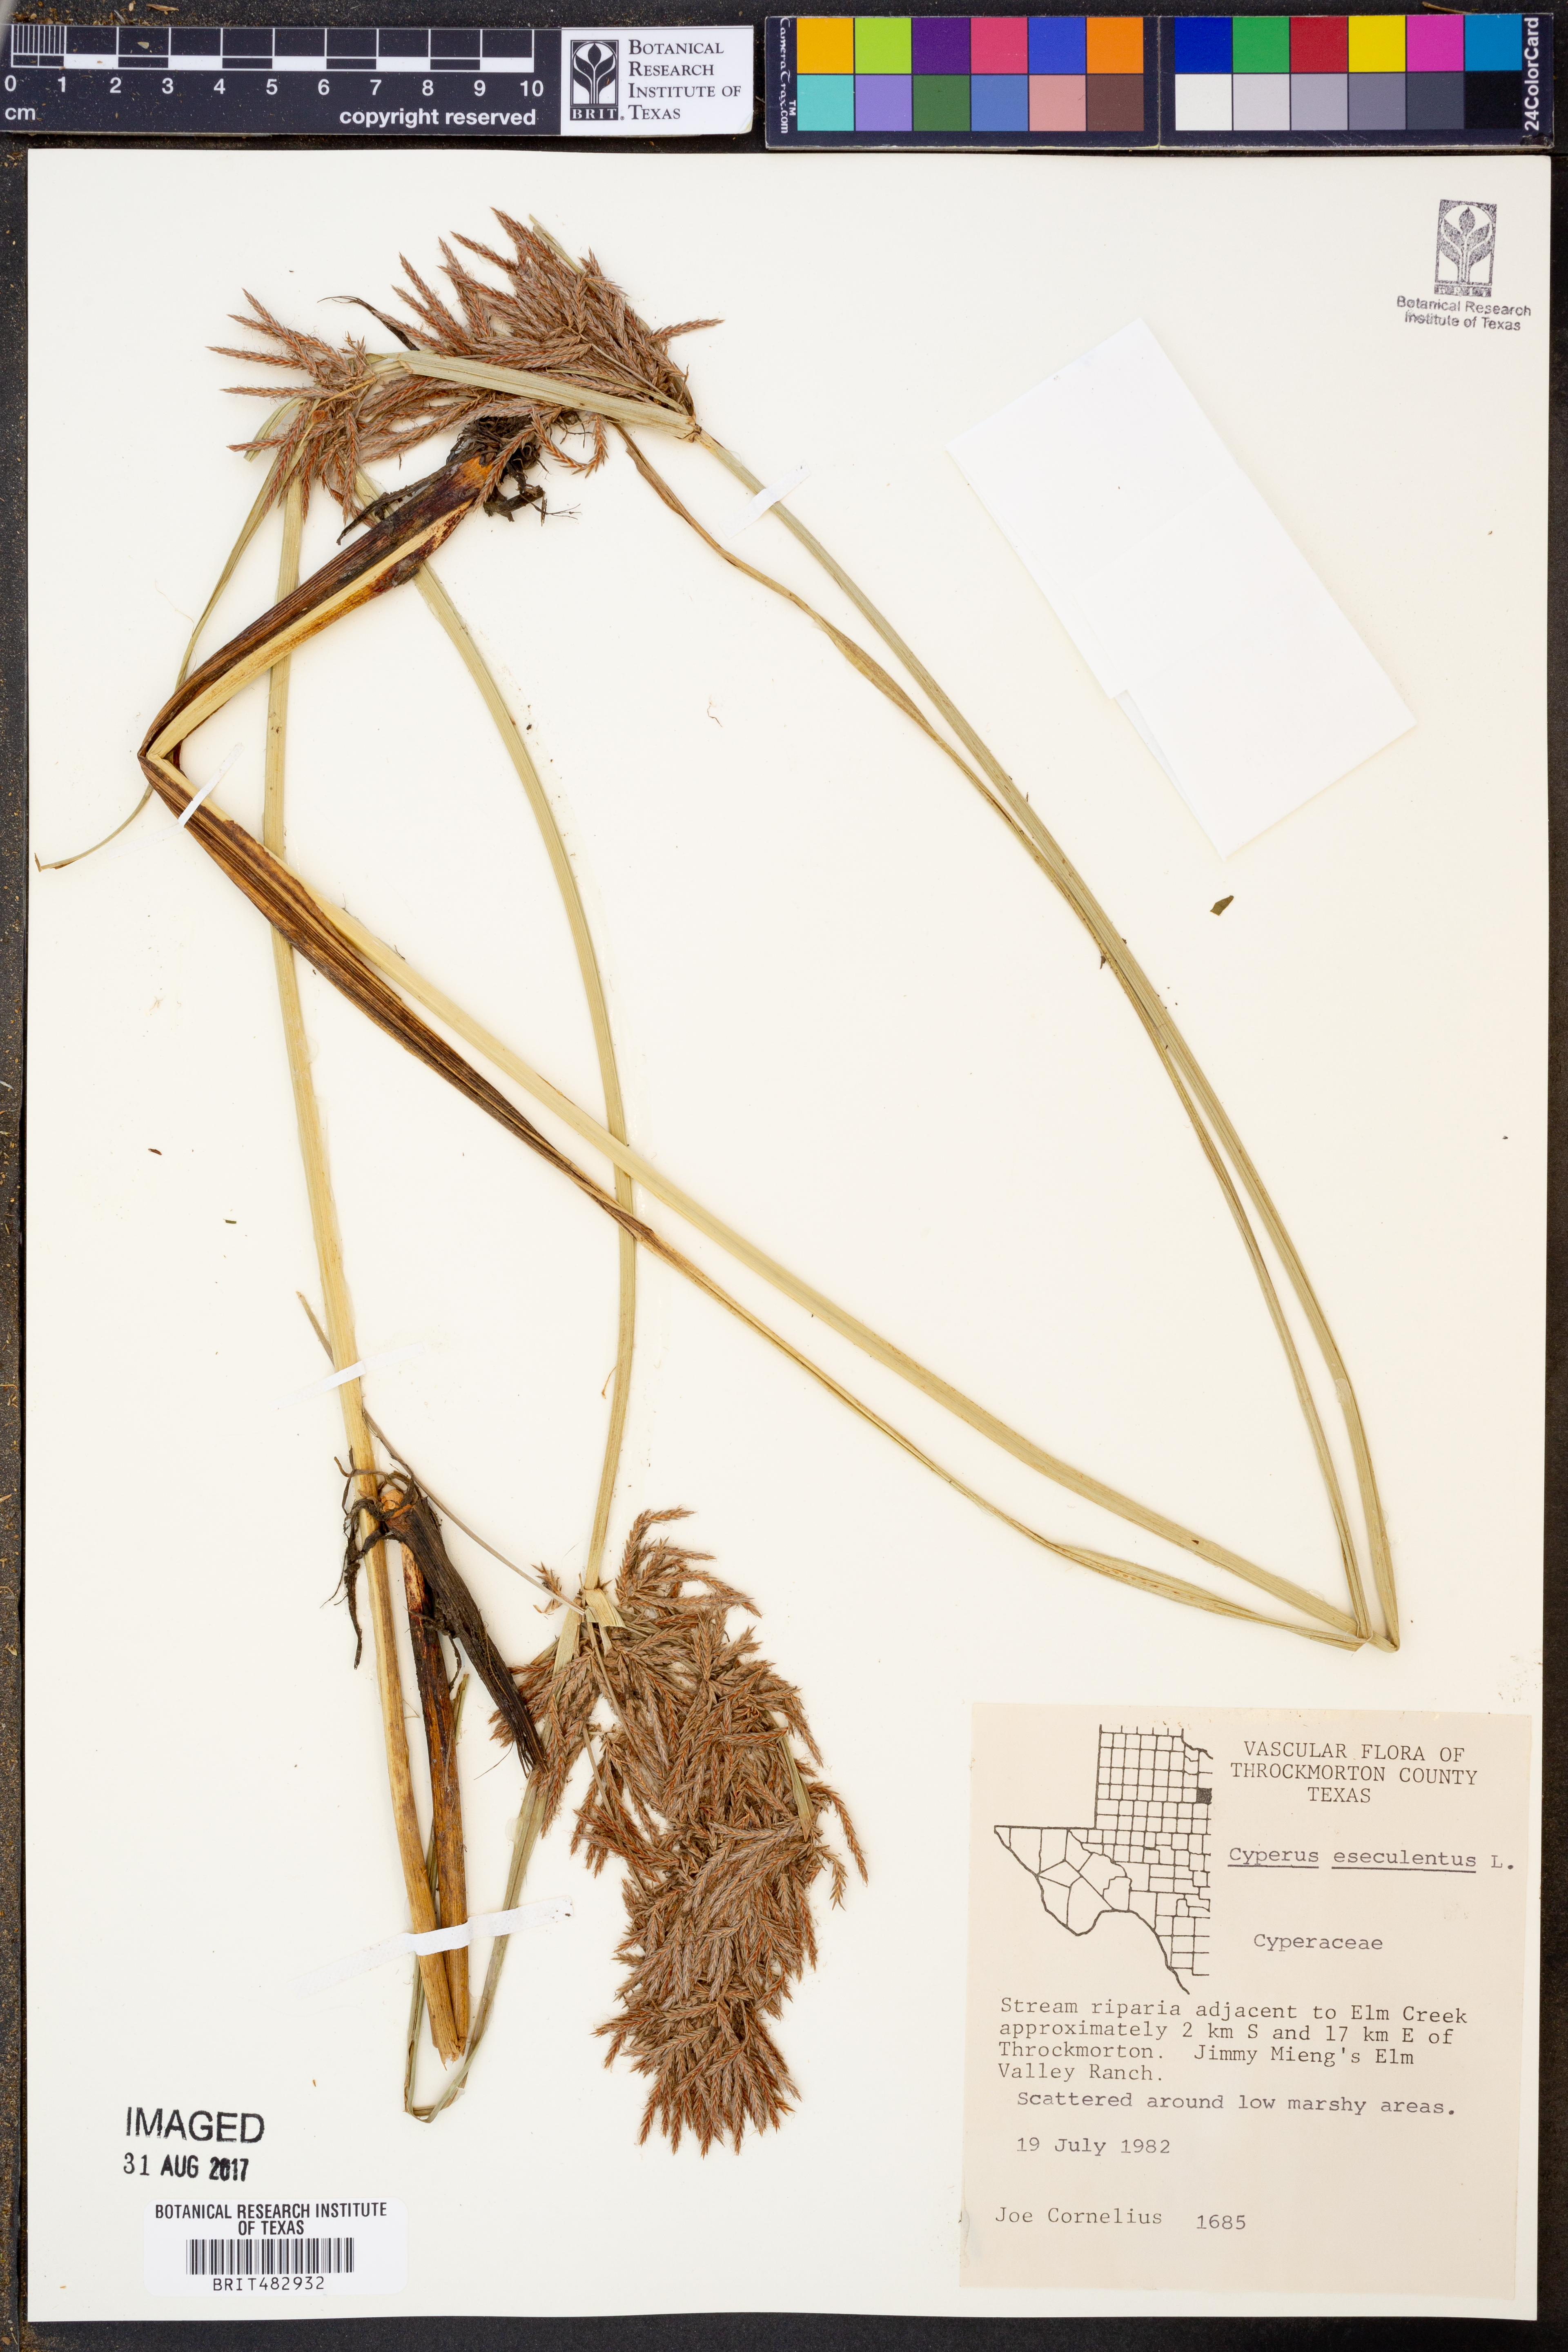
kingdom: Plantae
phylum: Tracheophyta
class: Liliopsida
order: Poales
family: Cyperaceae
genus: Cyperus
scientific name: Cyperus esculentus
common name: Yellow nutsedge
